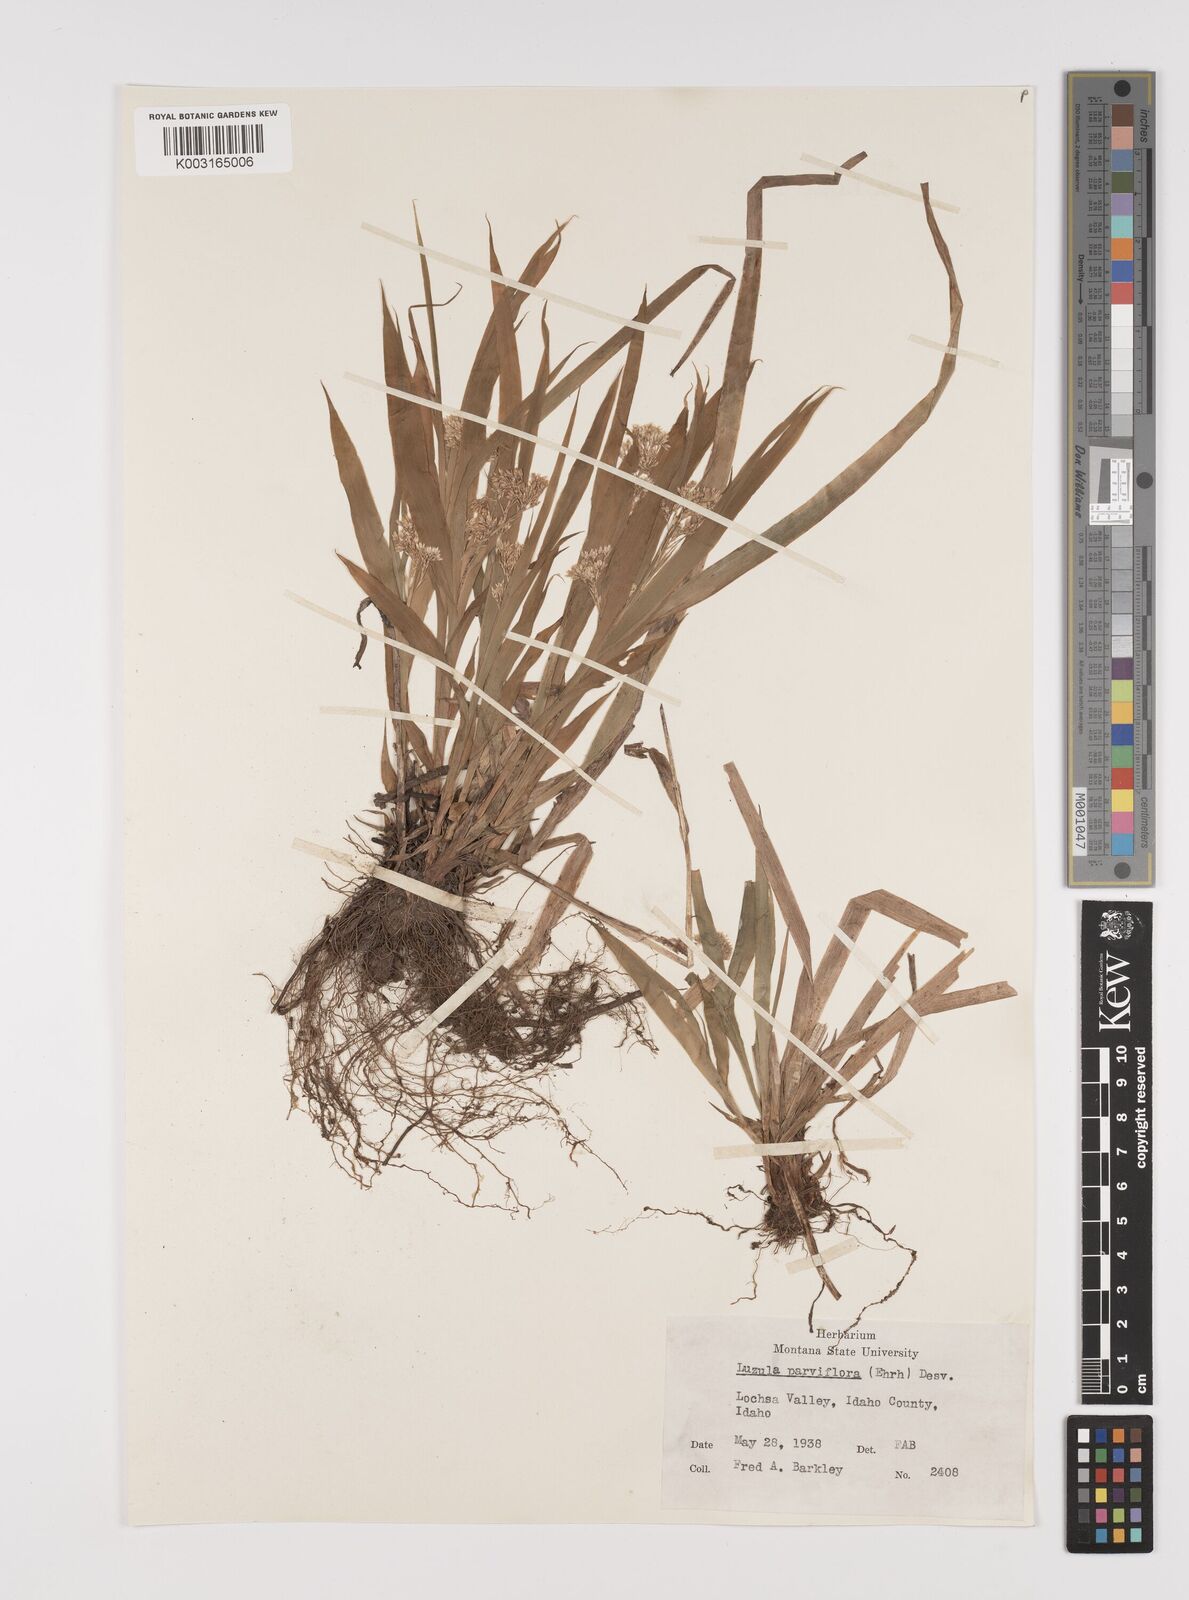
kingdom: Plantae
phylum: Tracheophyta
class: Liliopsida
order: Poales
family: Juncaceae
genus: Luzula
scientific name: Luzula parviflora
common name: Millet woodrush
